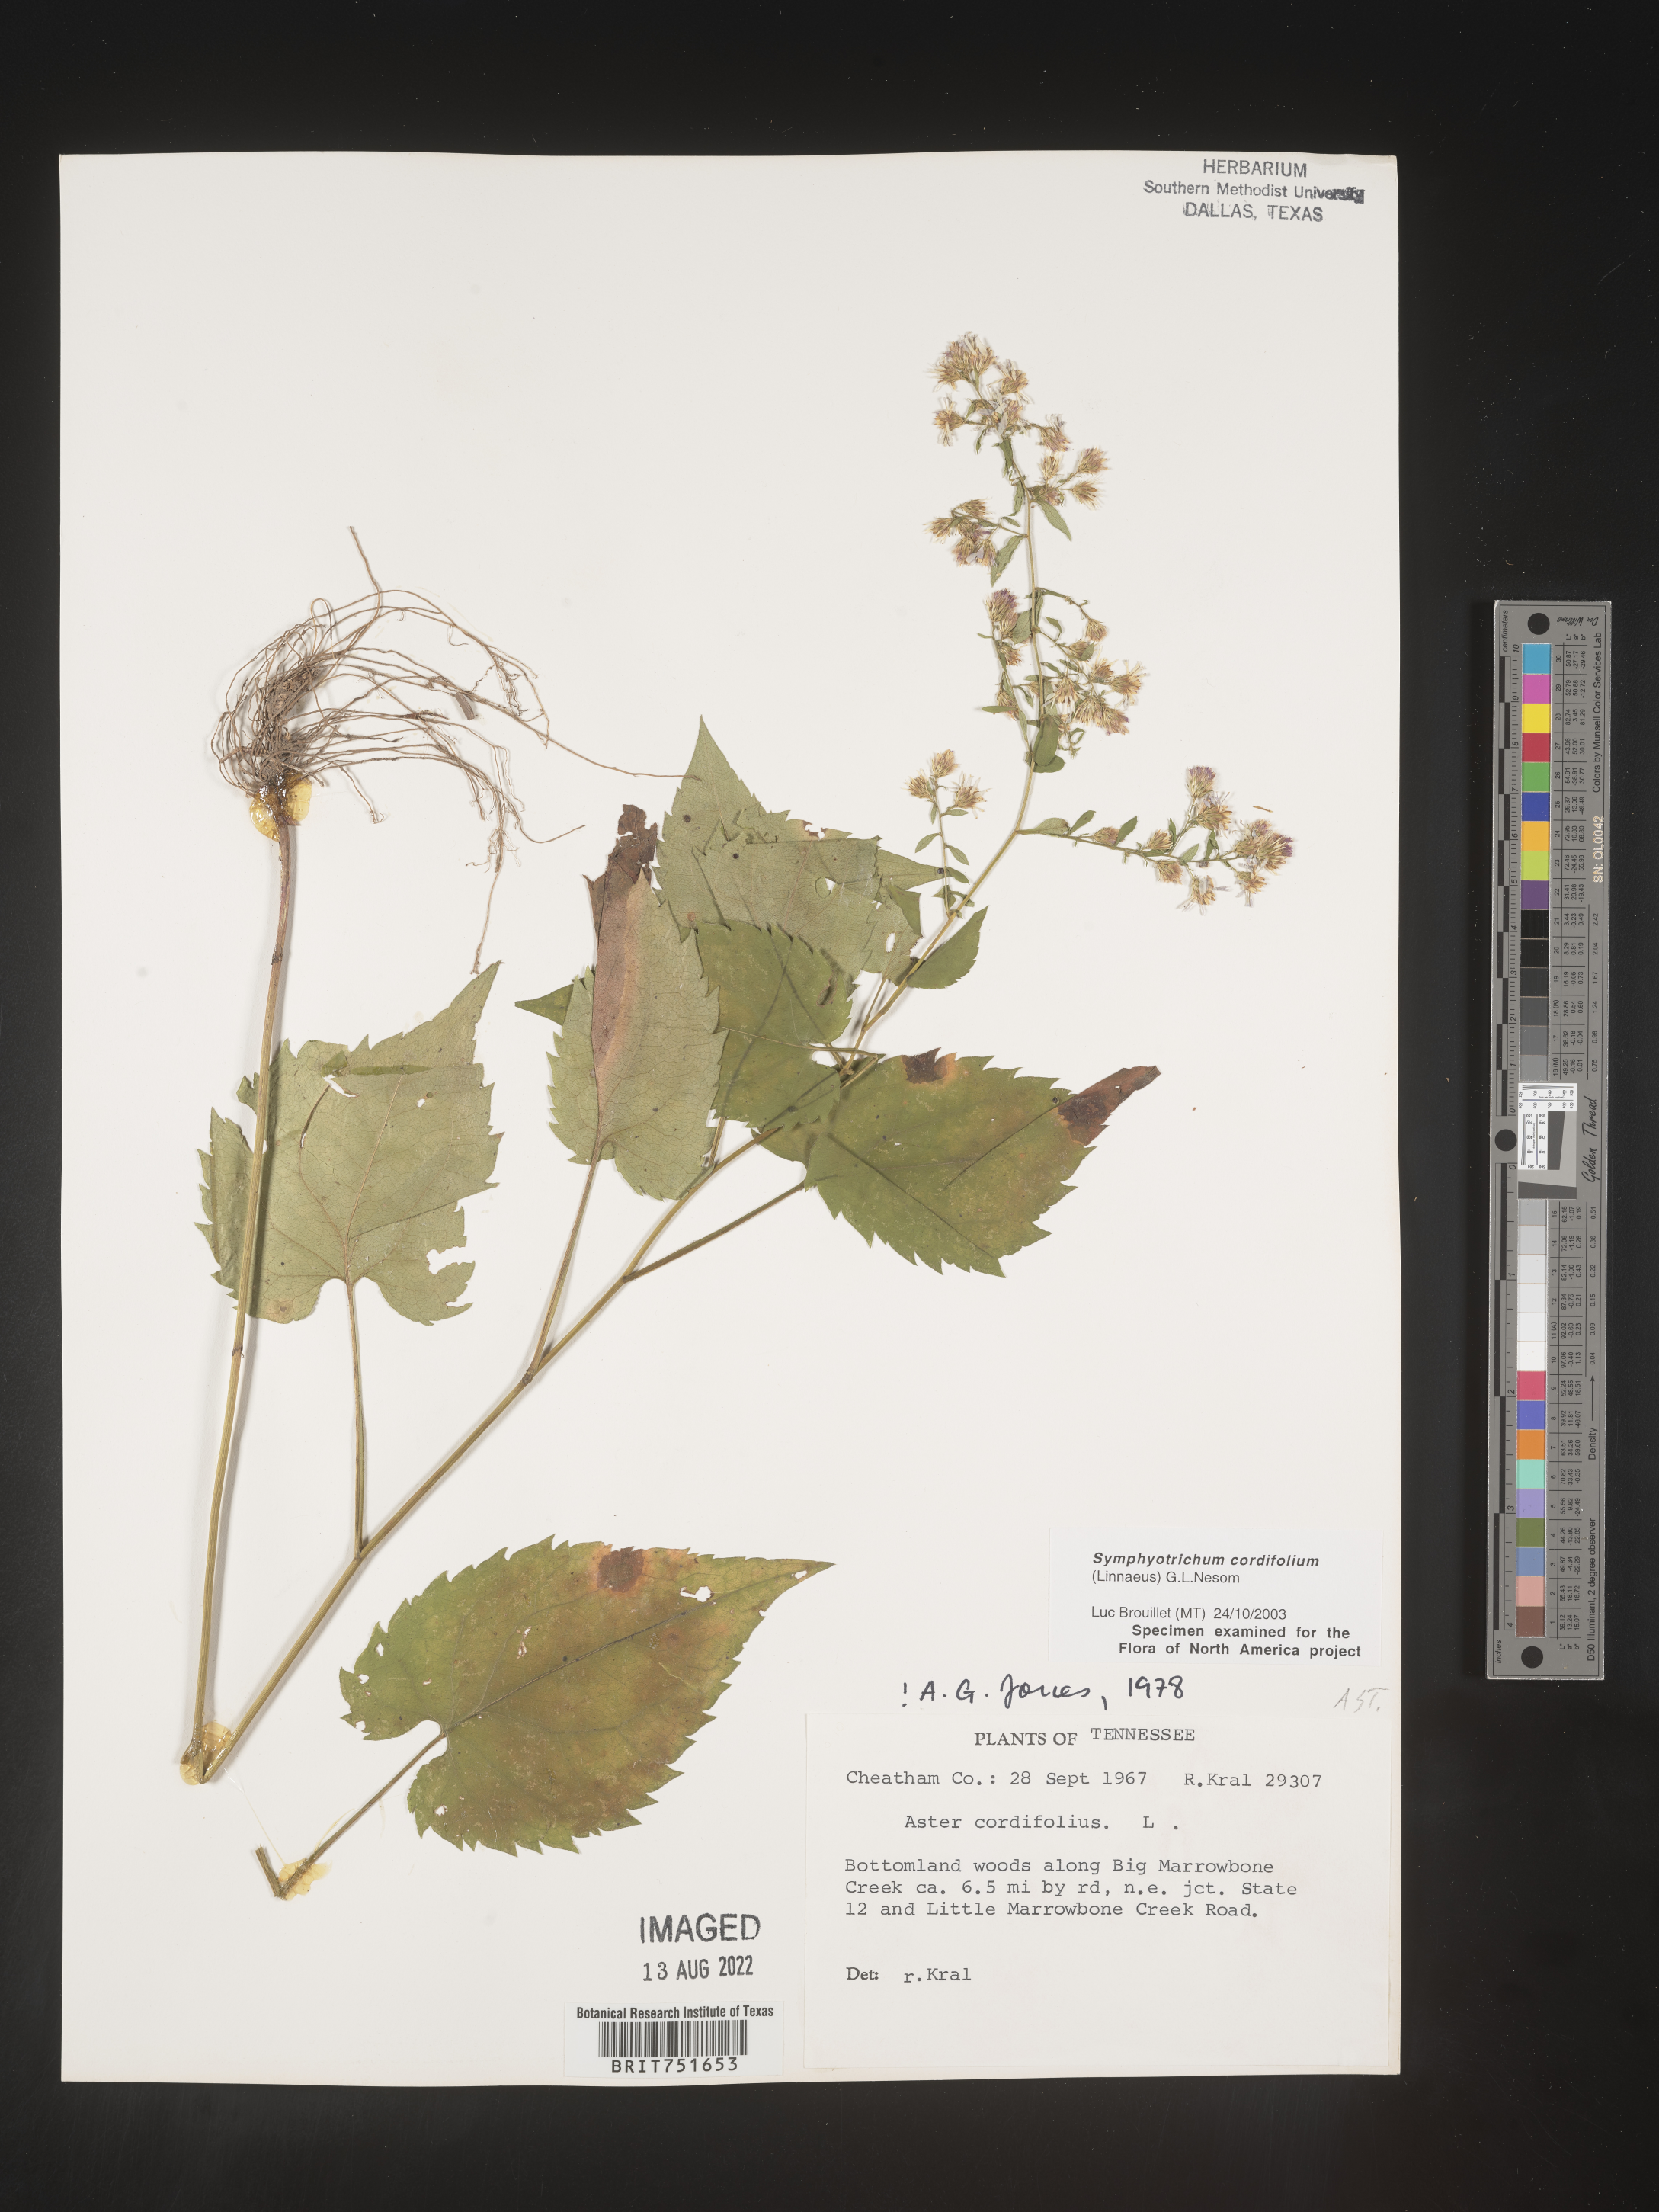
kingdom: Plantae
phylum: Tracheophyta
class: Magnoliopsida
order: Asterales
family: Asteraceae
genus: Symphyotrichum
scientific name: Symphyotrichum cordifolium
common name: Beeweed
